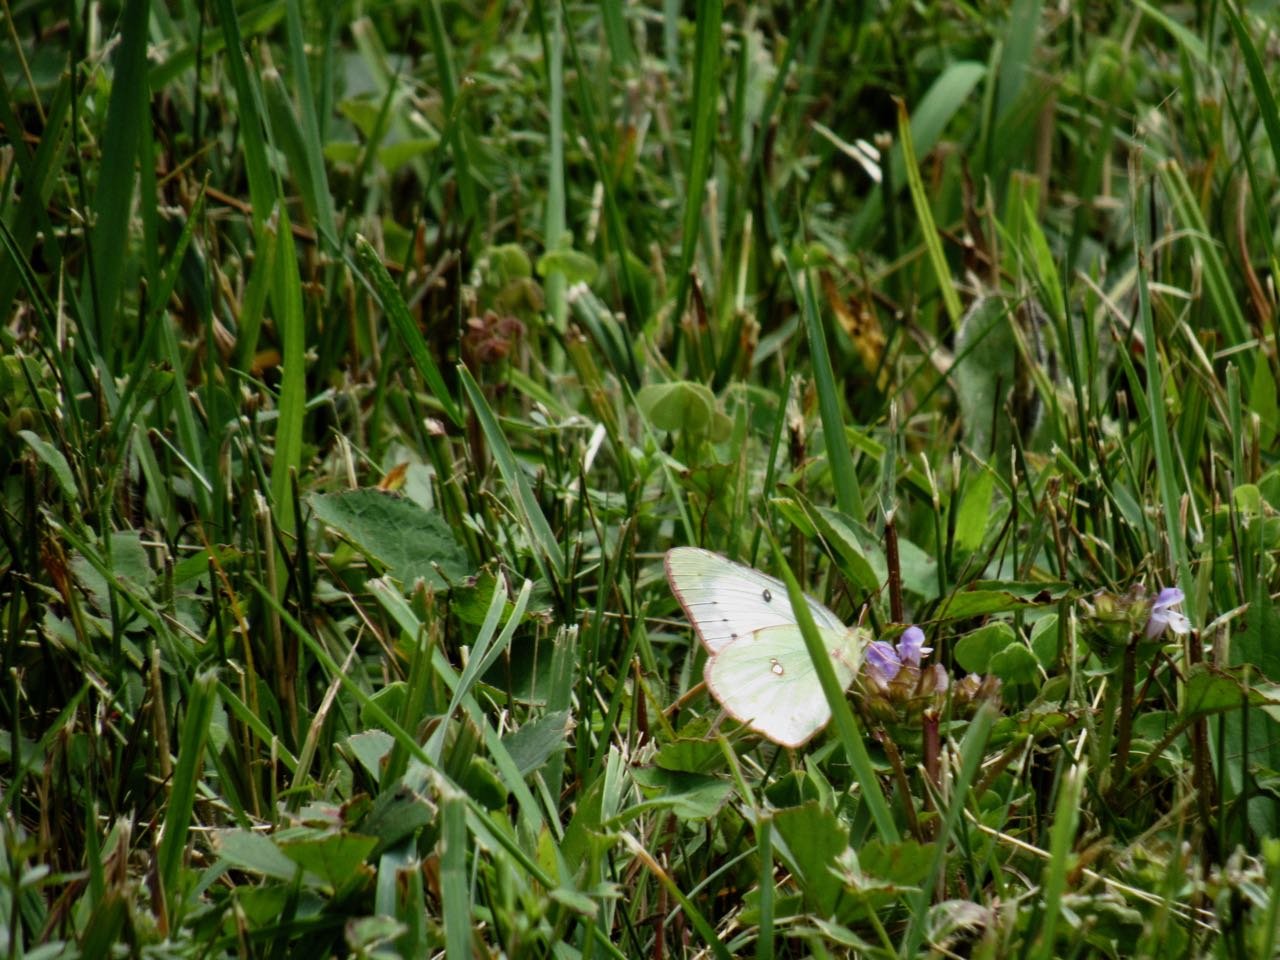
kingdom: Animalia
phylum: Arthropoda
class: Insecta
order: Lepidoptera
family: Pieridae
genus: Colias
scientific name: Colias philodice
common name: Clouded Sulphur
